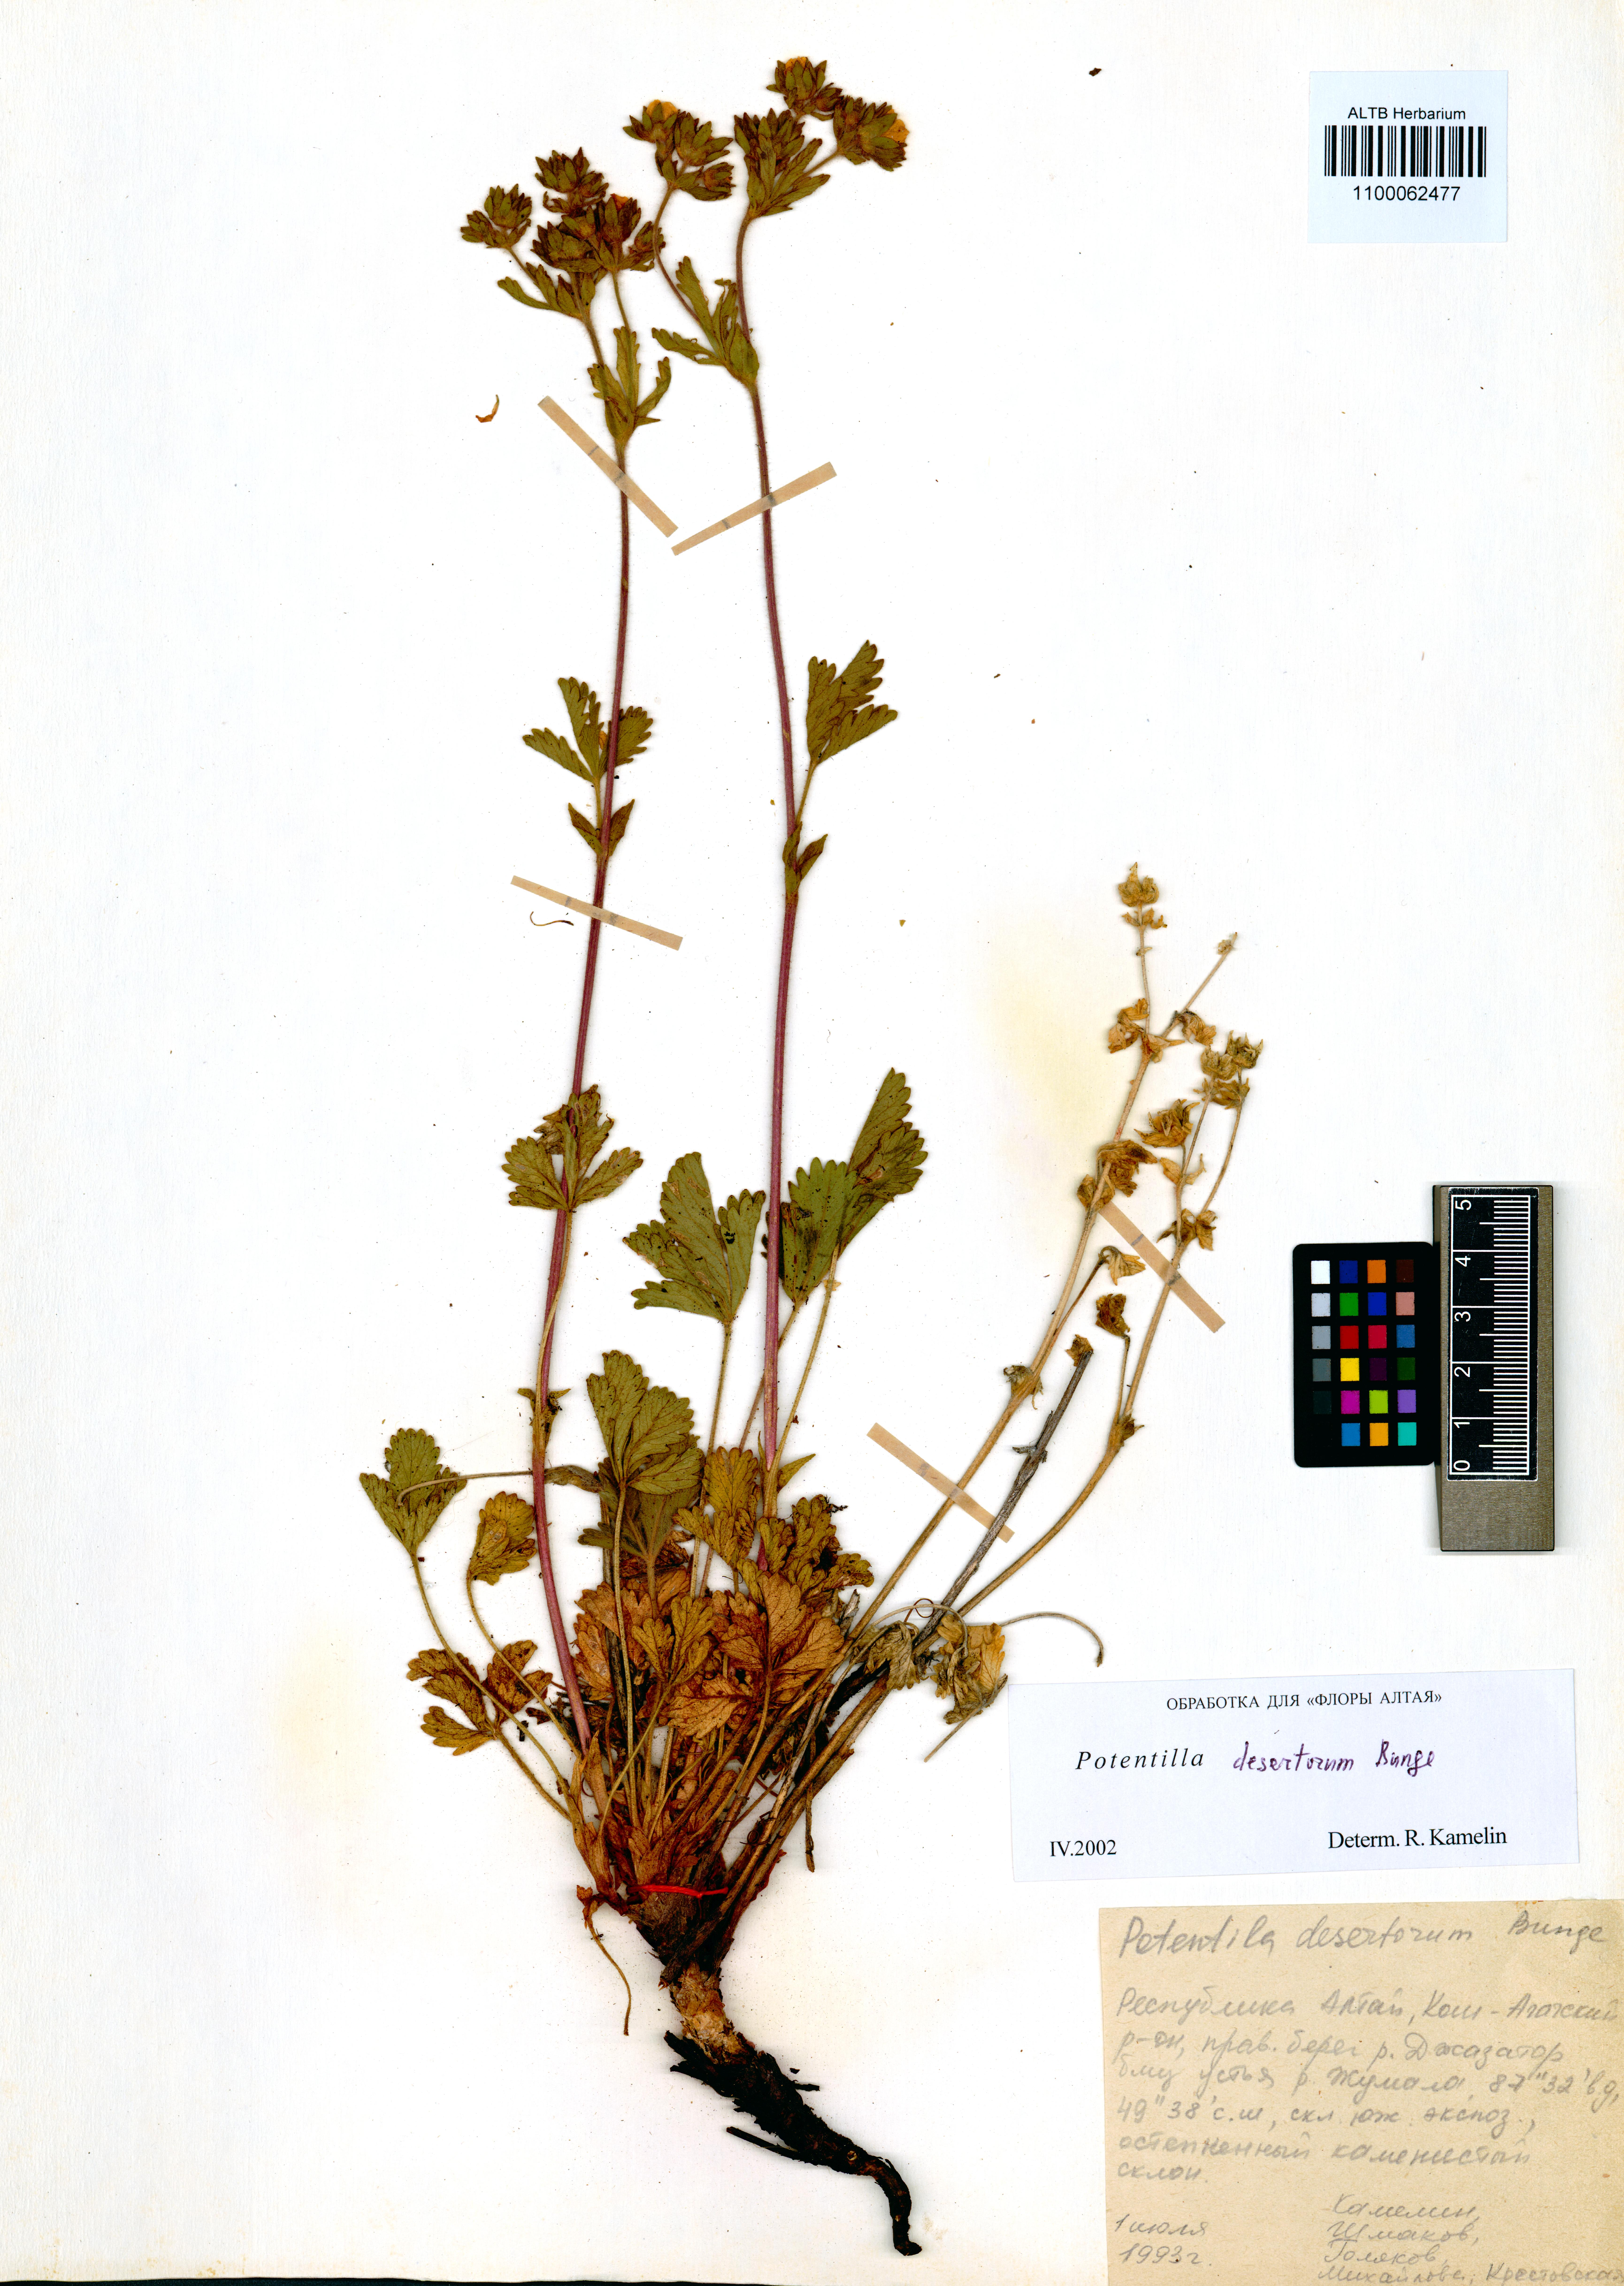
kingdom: Plantae
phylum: Tracheophyta
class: Magnoliopsida
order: Rosales
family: Rosaceae
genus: Potentilla
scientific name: Potentilla desertorum
